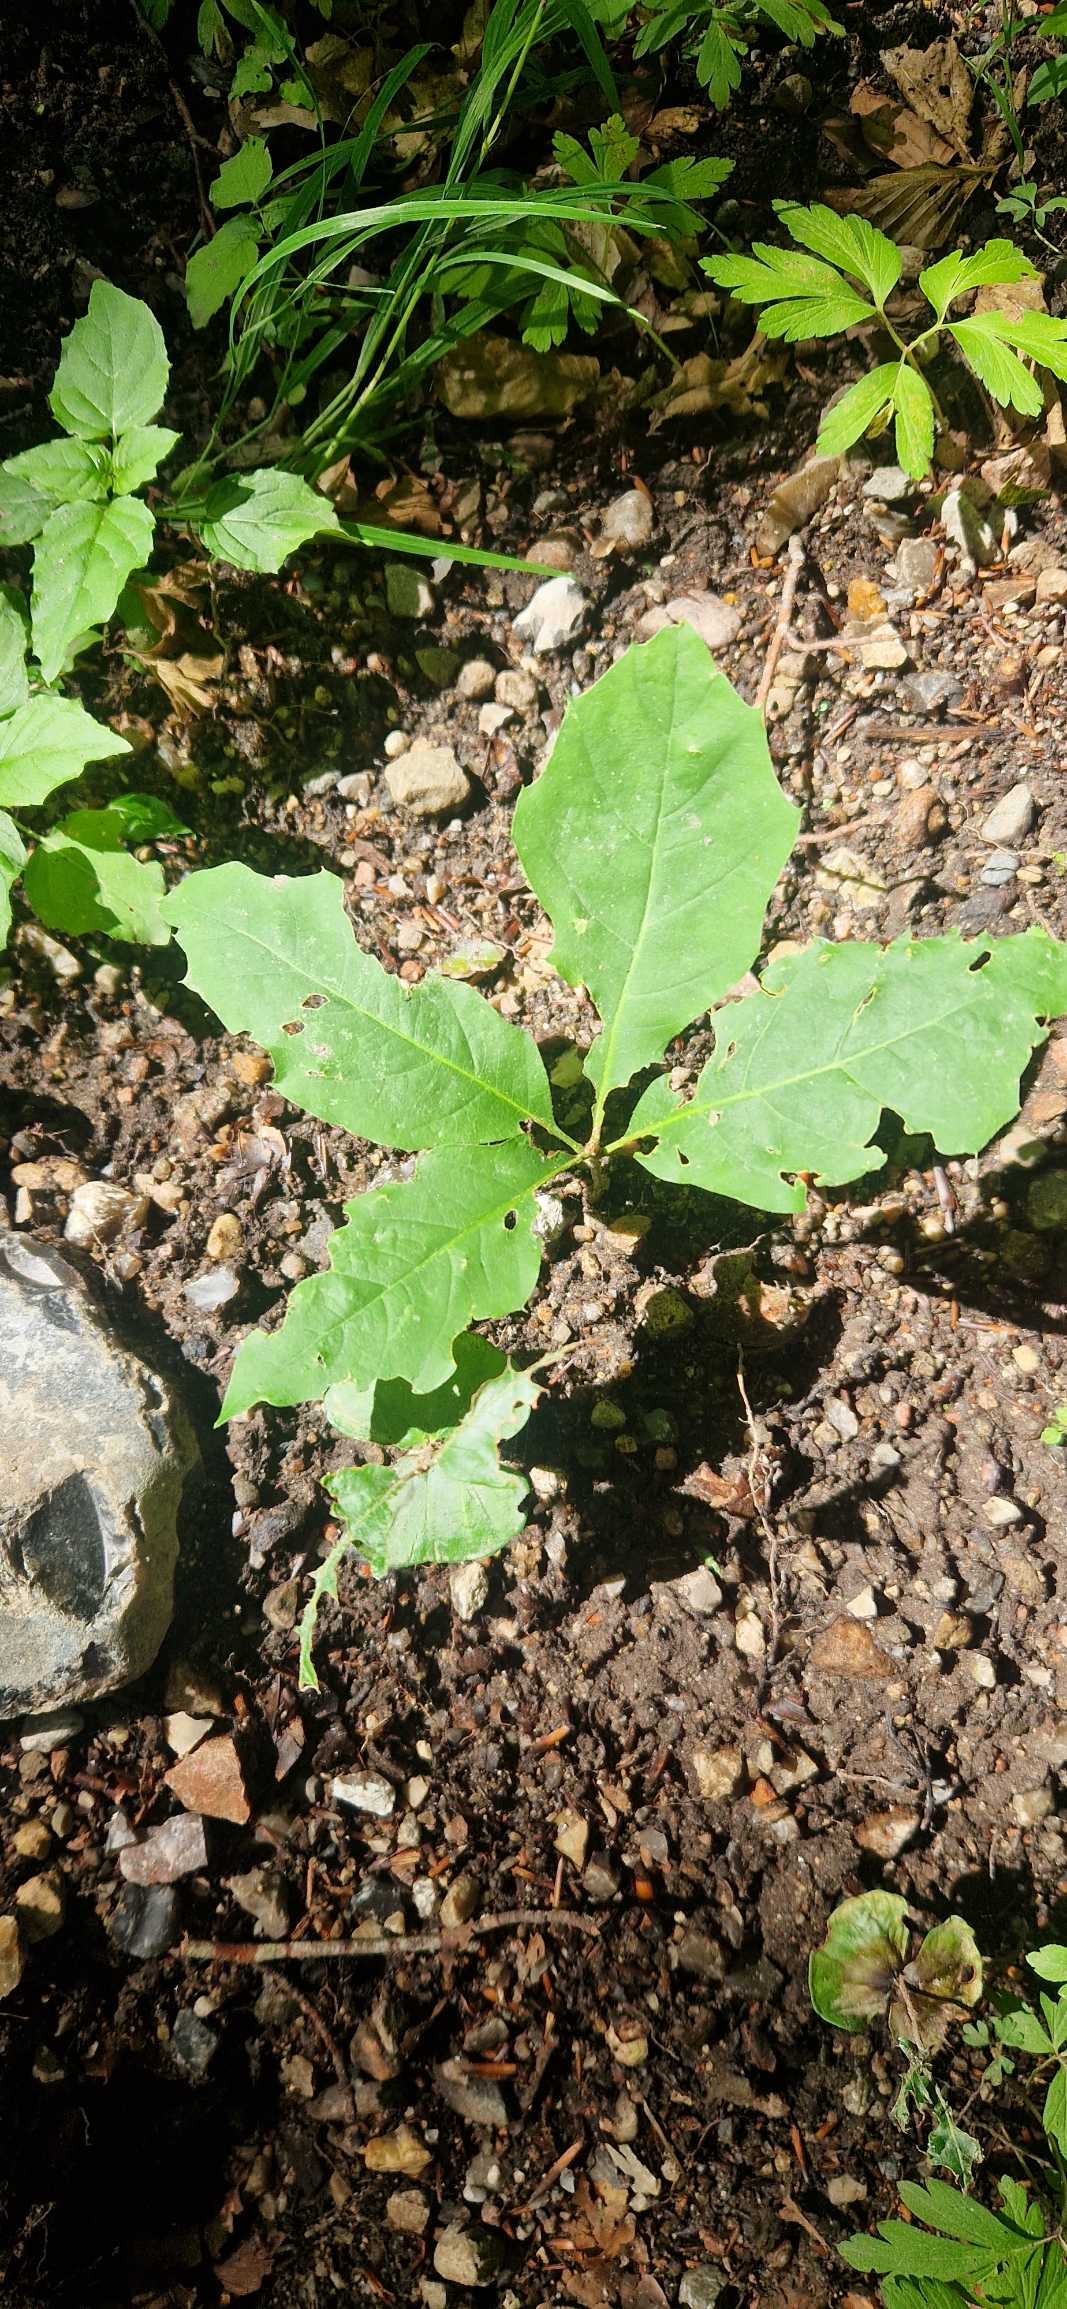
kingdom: Plantae
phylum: Tracheophyta
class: Magnoliopsida
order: Fagales
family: Fagaceae
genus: Quercus
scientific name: Quercus rubra
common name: Rød-eg
